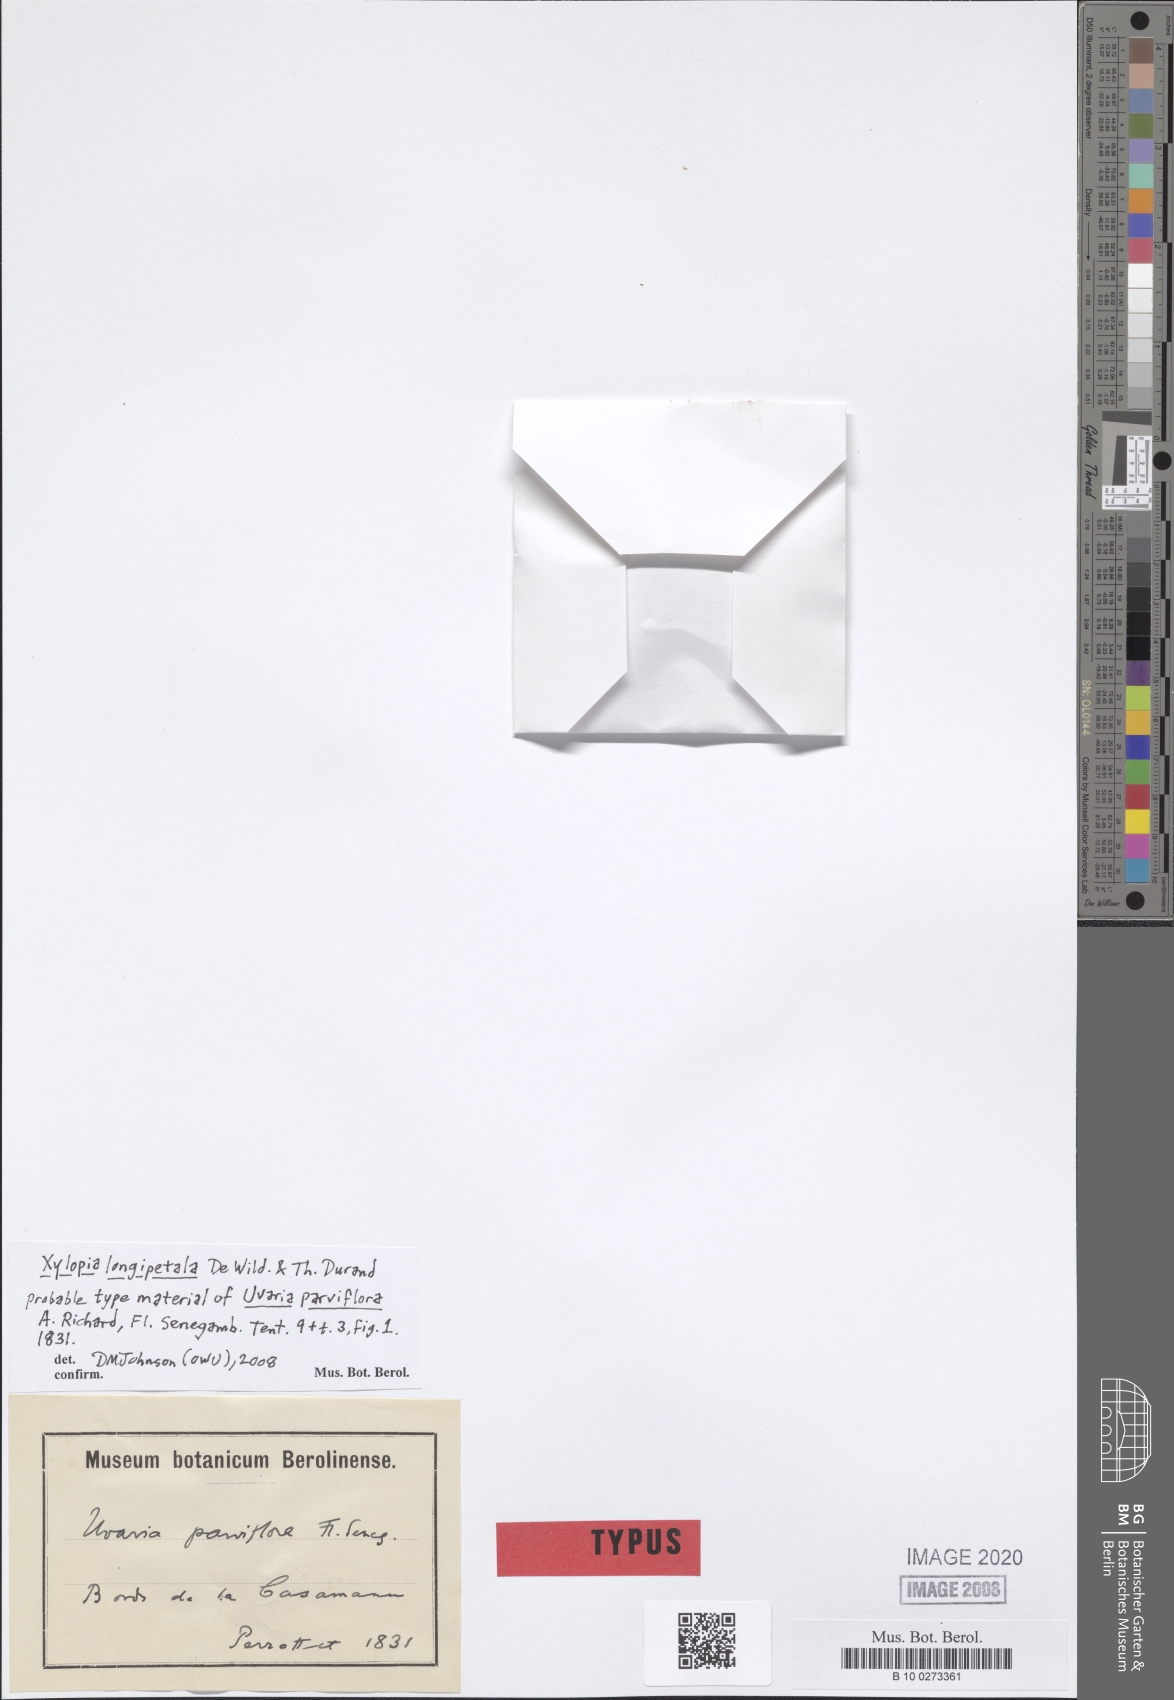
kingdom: Plantae
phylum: Tracheophyta
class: Magnoliopsida
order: Magnoliales
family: Annonaceae
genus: Xylopia
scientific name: Xylopia parviflora
